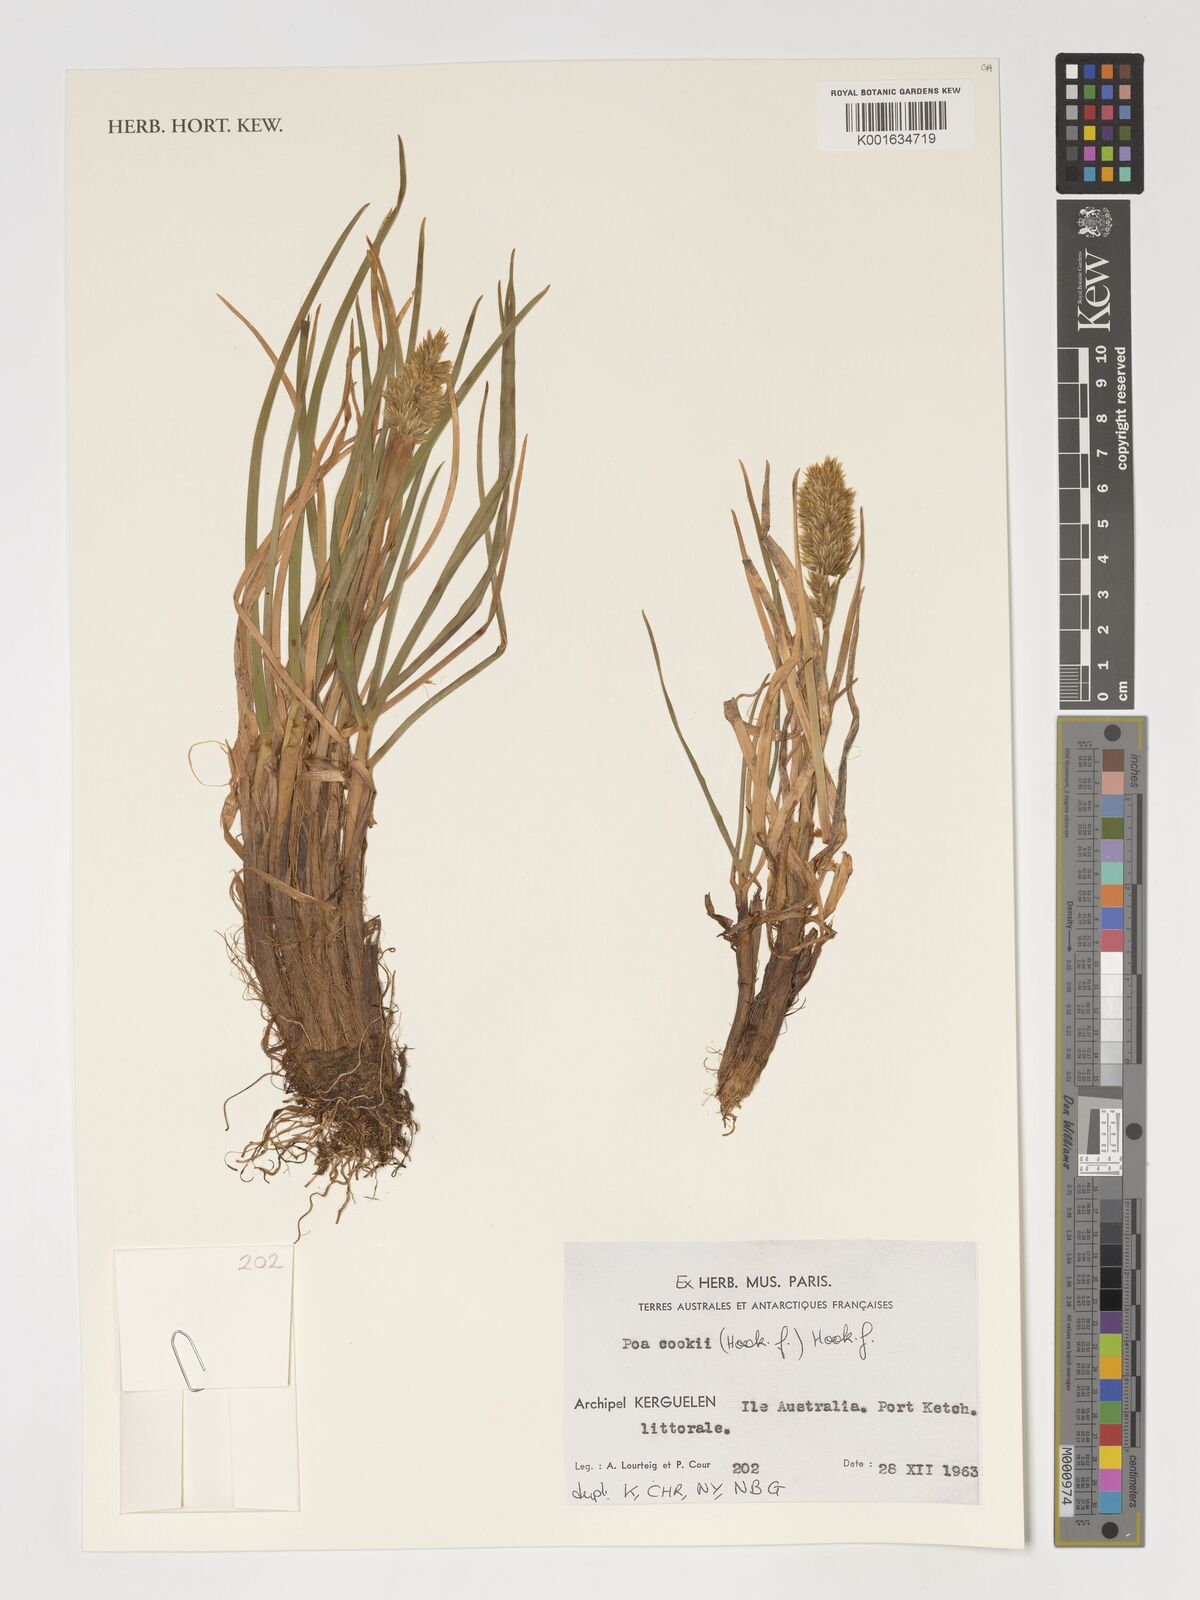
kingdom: Plantae
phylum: Tracheophyta
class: Liliopsida
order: Poales
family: Poaceae
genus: Poa
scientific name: Poa cookii
